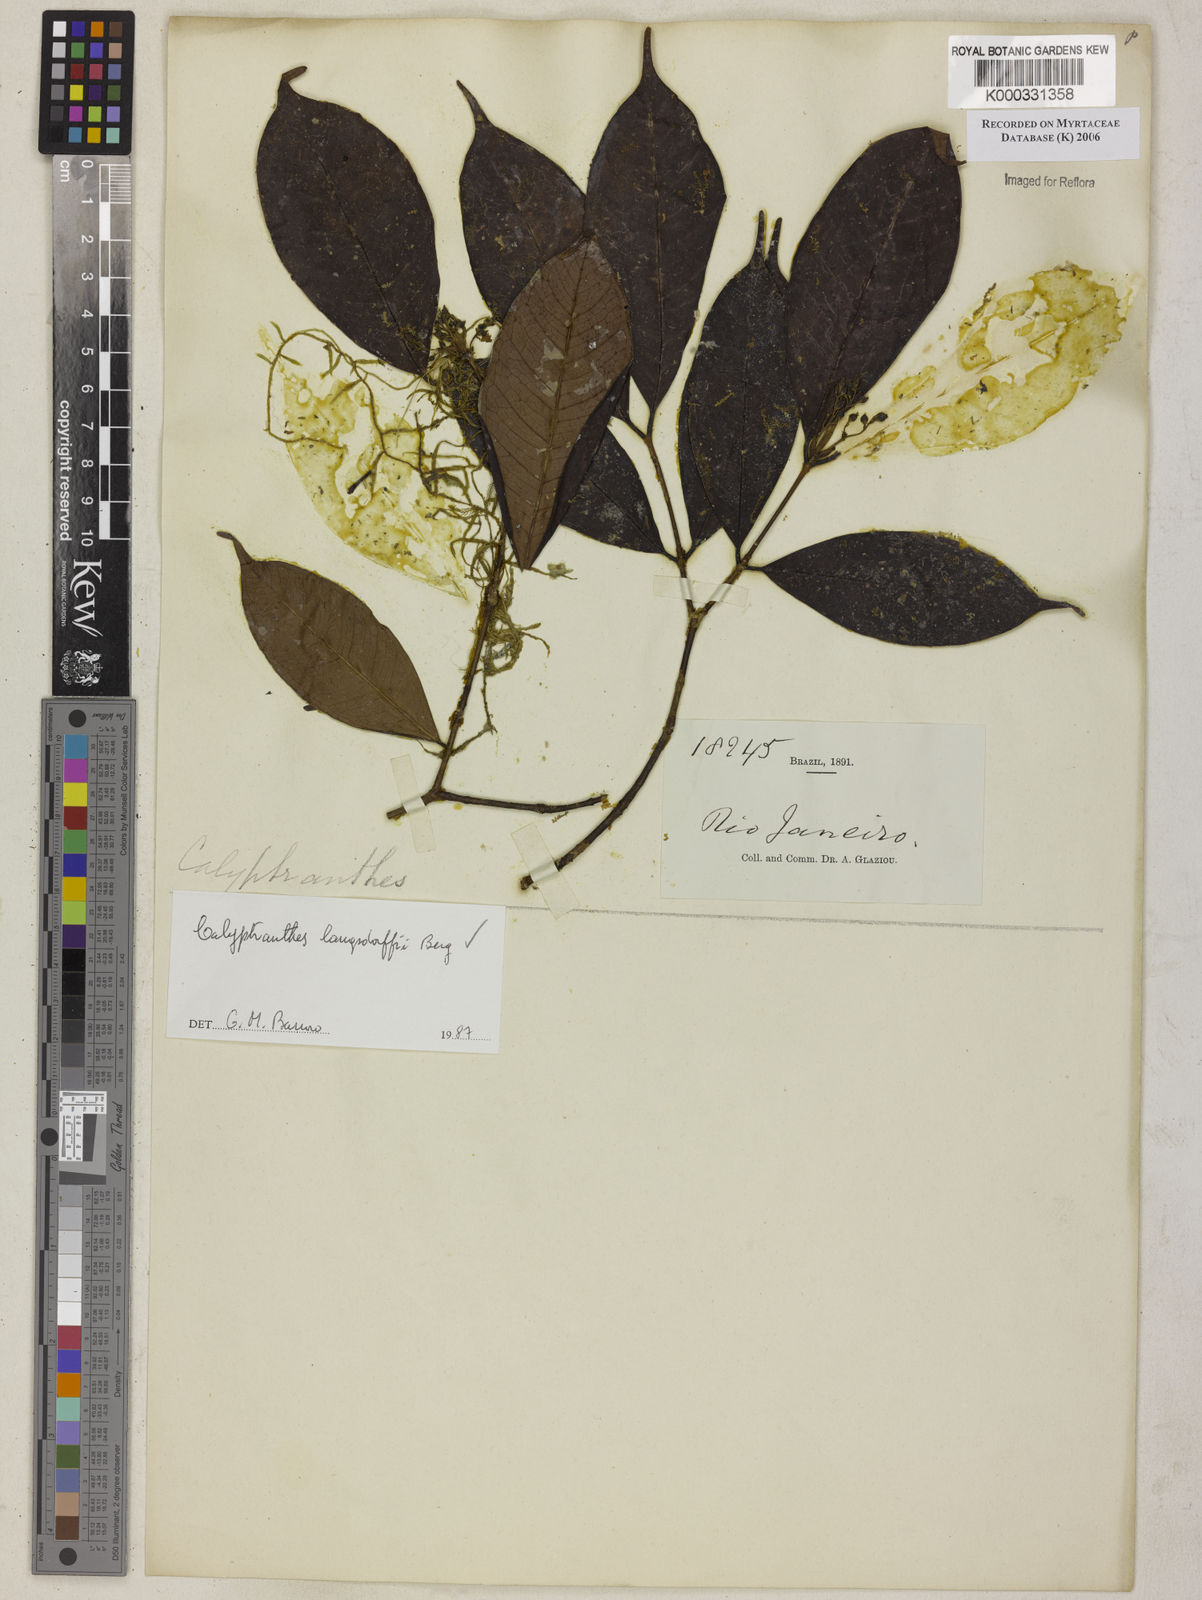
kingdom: Plantae
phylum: Tracheophyta
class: Magnoliopsida
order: Myrtales
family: Myrtaceae
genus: Calyptranthes
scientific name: Calyptranthes
